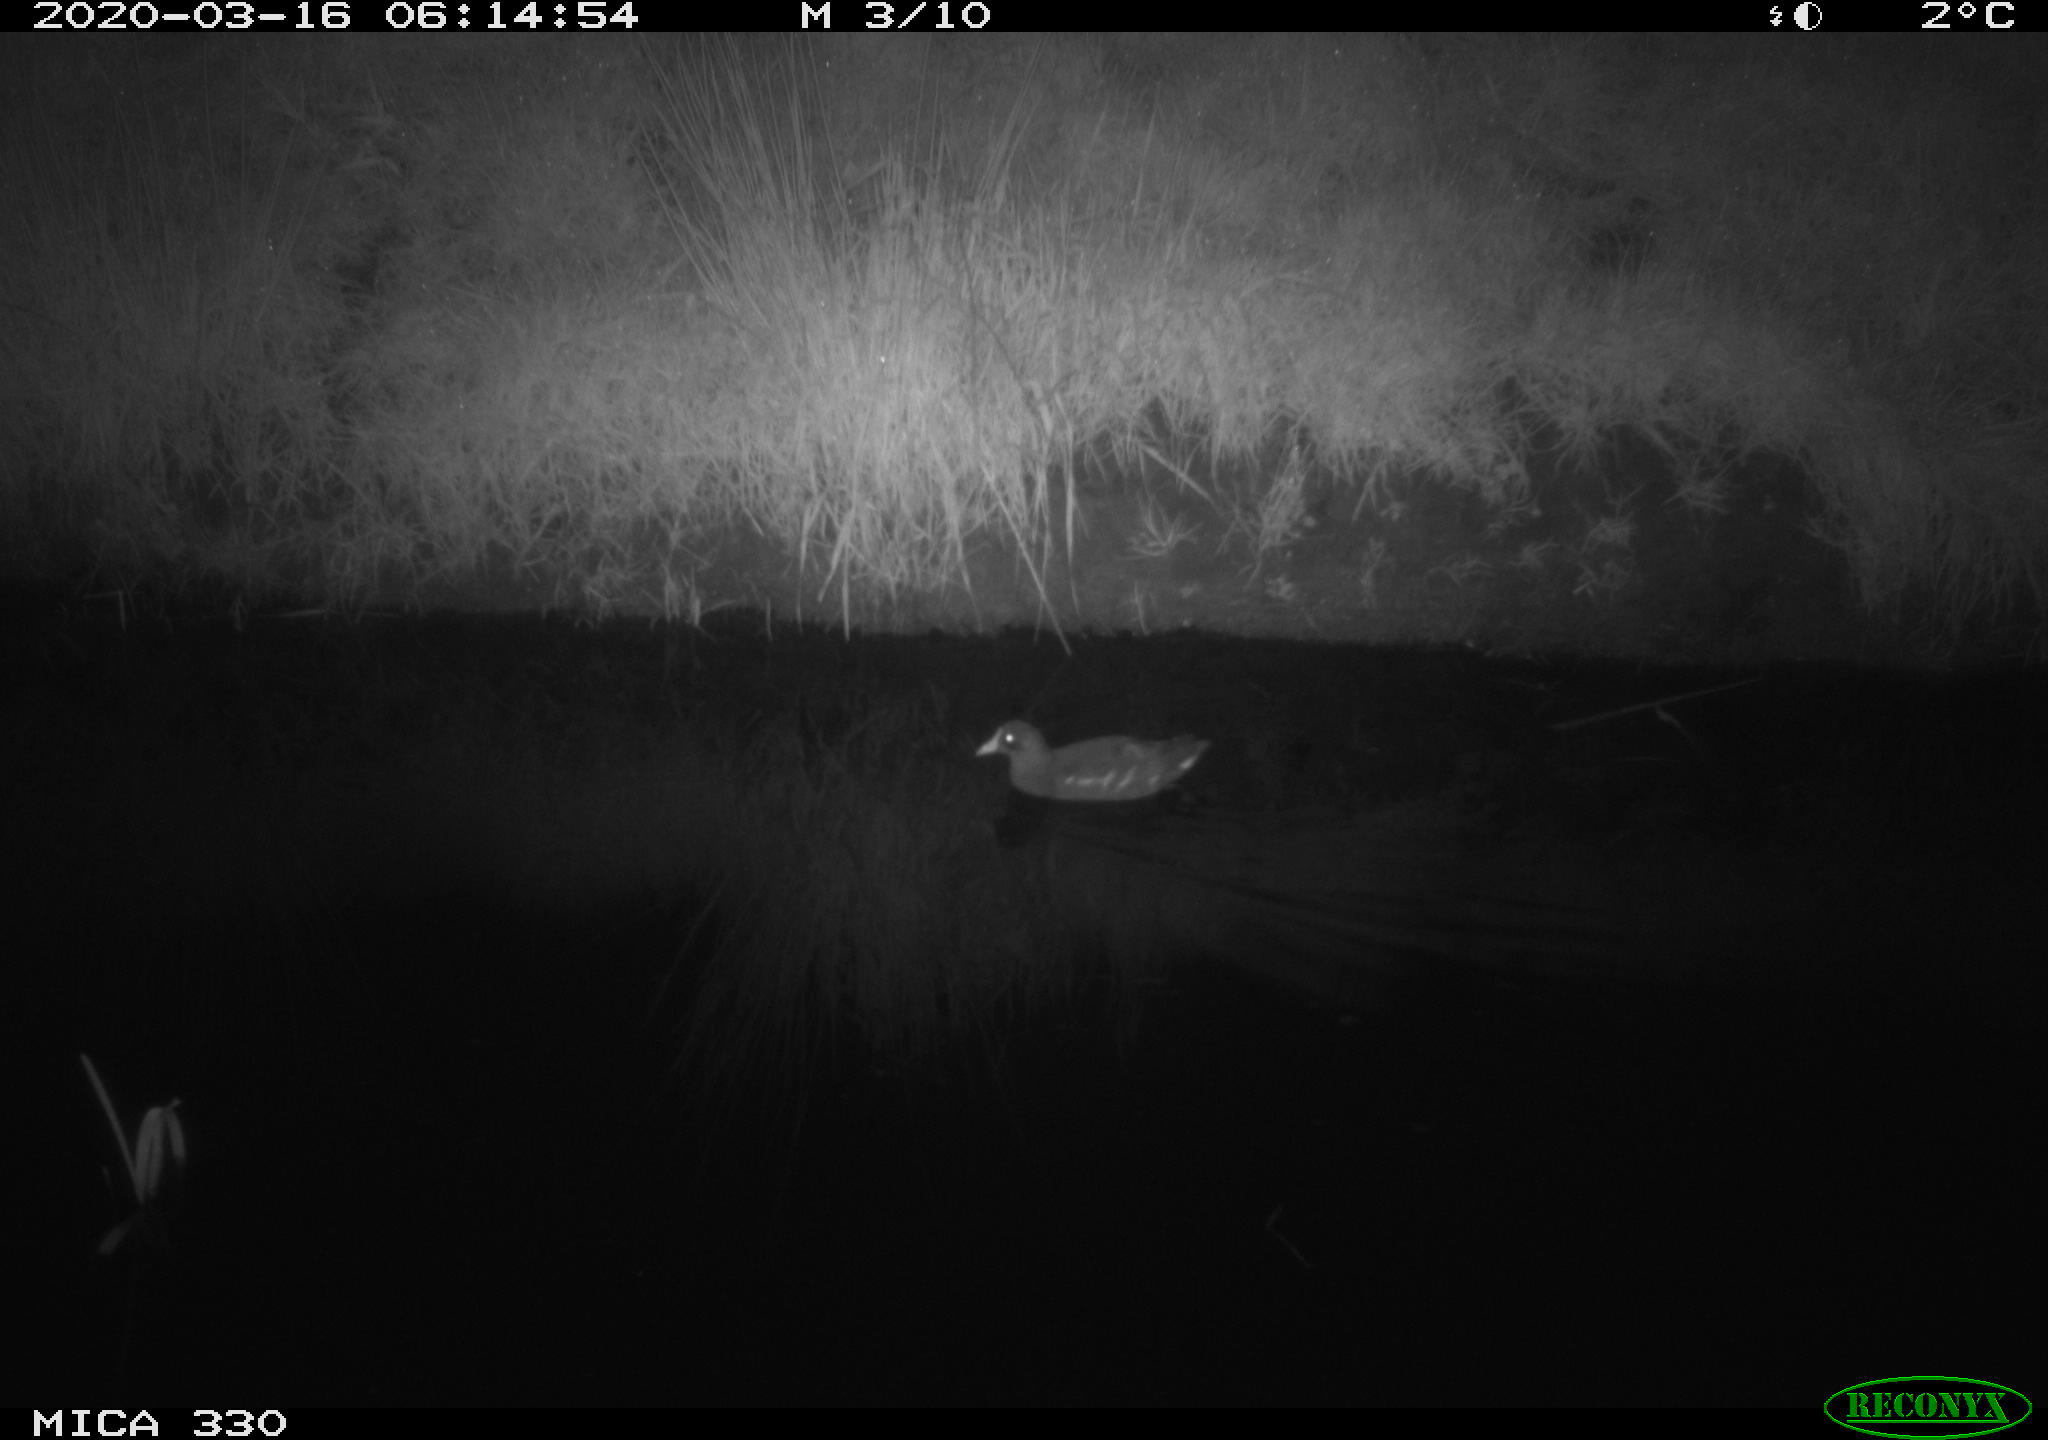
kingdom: Animalia
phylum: Chordata
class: Aves
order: Gruiformes
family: Rallidae
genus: Gallinula
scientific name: Gallinula chloropus
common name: Common moorhen
